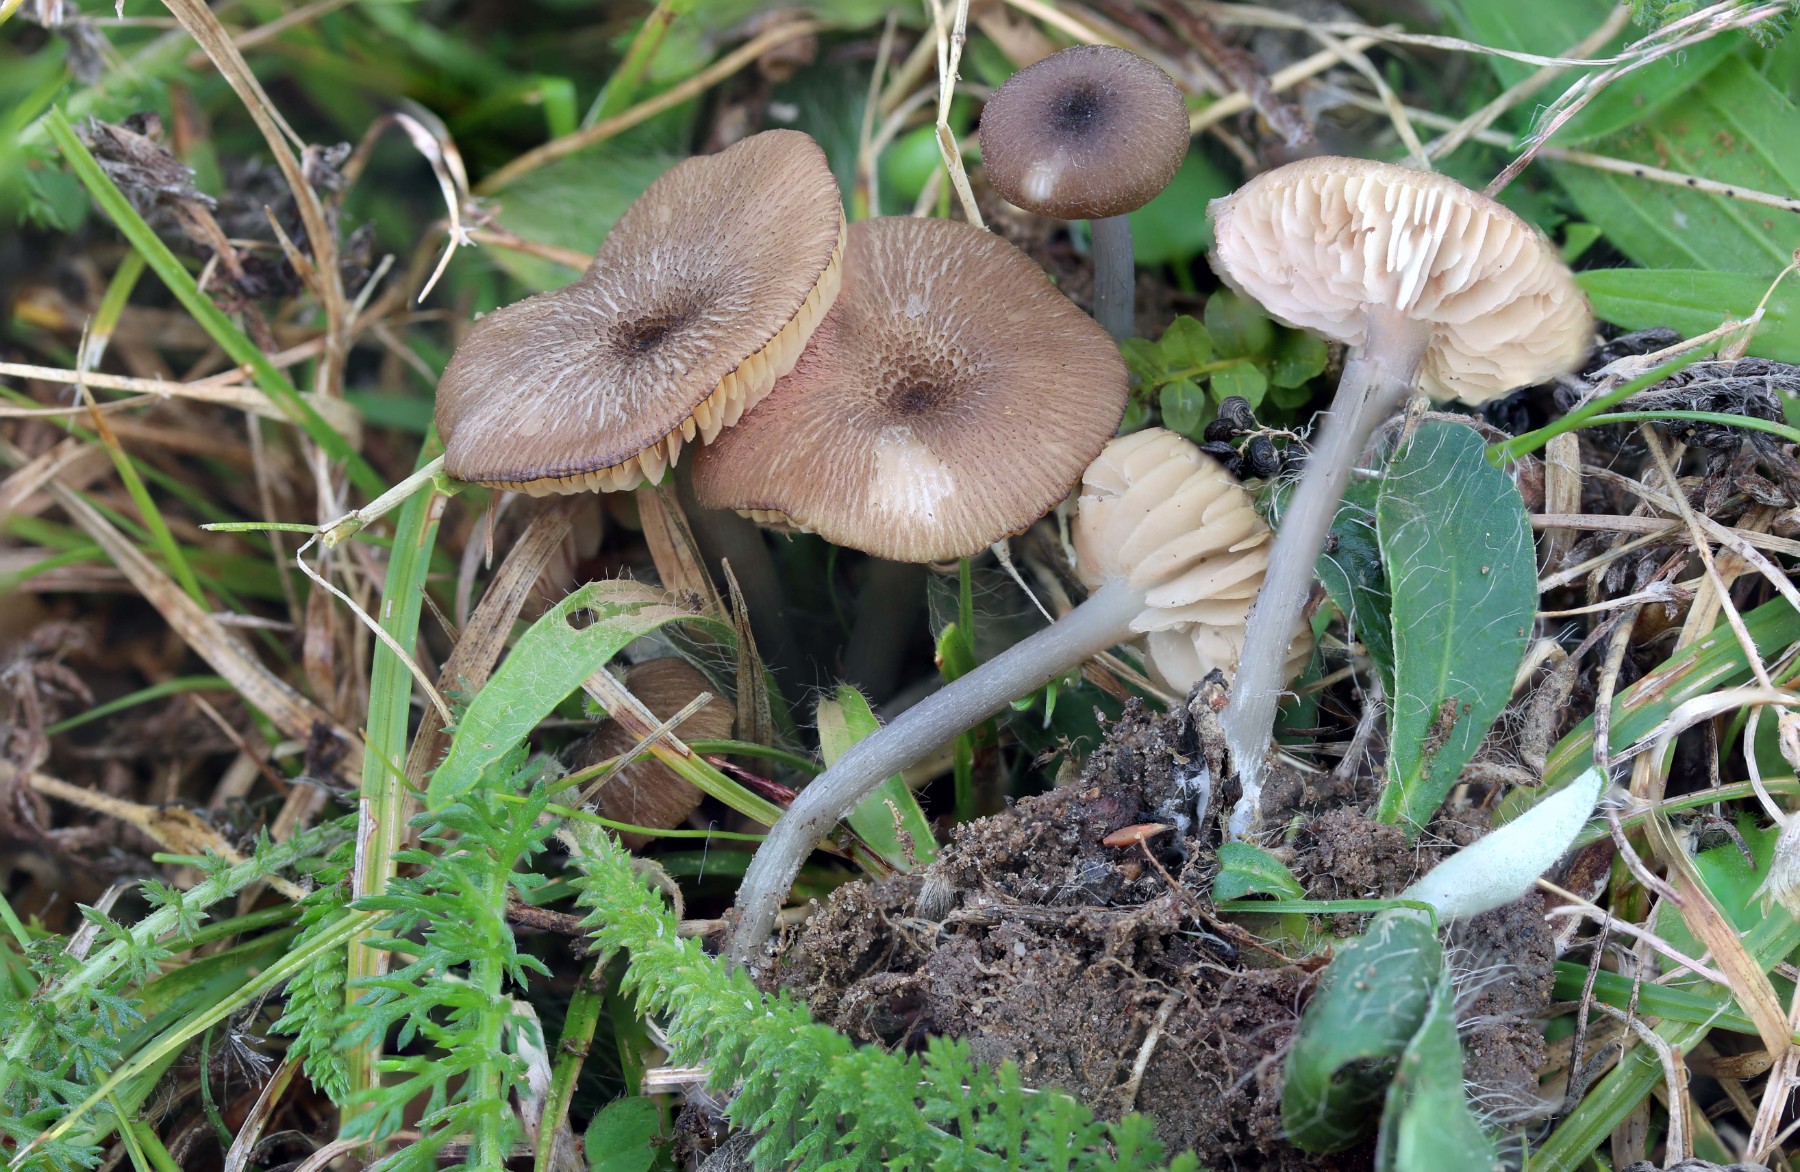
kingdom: Fungi
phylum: Basidiomycota
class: Agaricomycetes
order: Agaricales
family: Entolomataceae
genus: Entoloma
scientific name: Entoloma isborscanum
